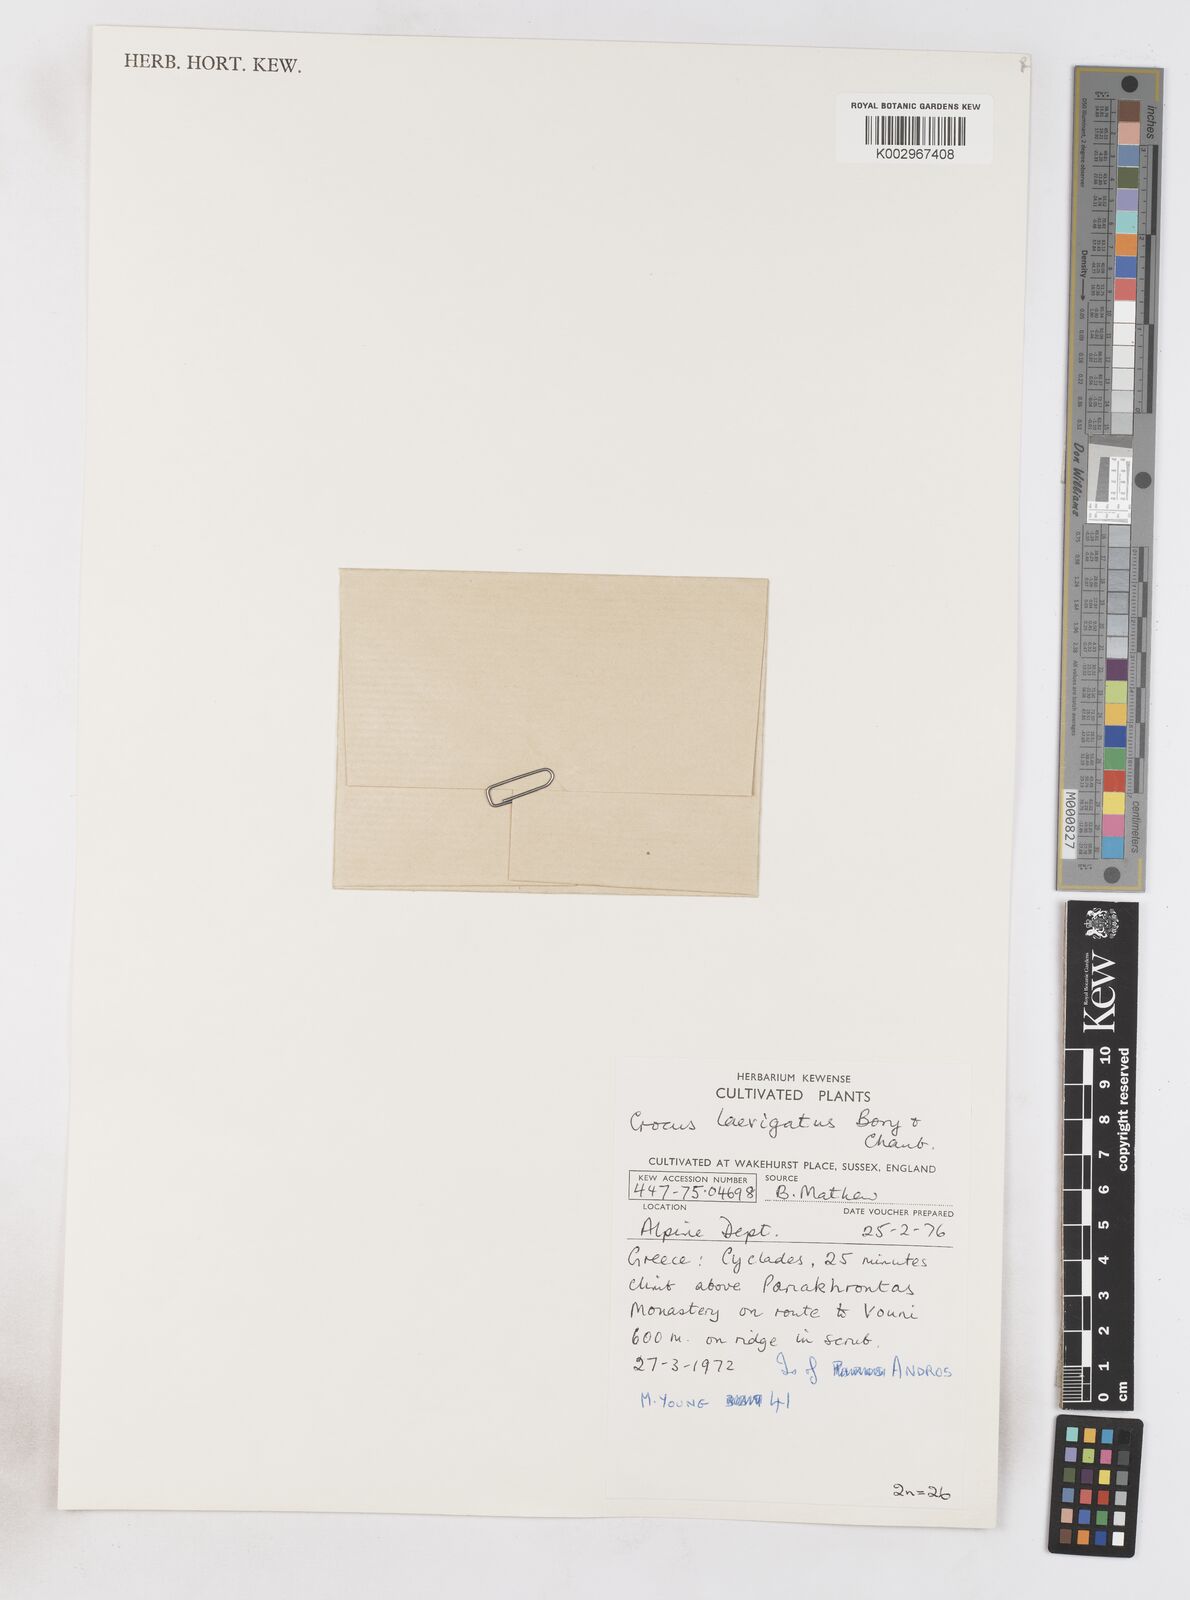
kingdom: Plantae
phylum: Tracheophyta
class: Liliopsida
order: Asparagales
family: Iridaceae
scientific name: Iridaceae
